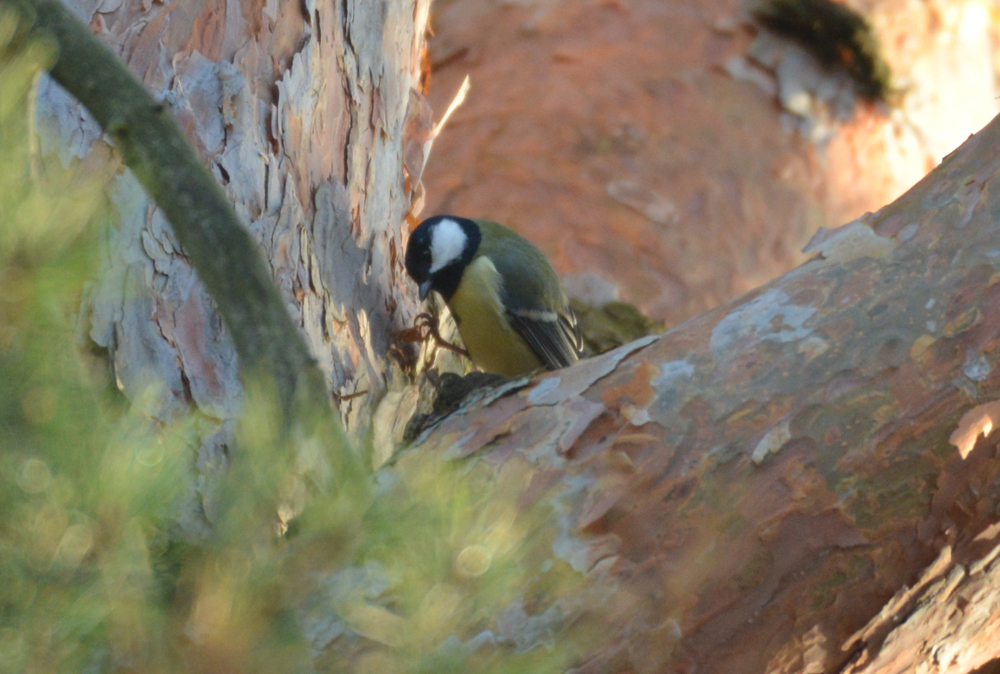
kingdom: Animalia
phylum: Chordata
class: Aves
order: Passeriformes
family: Paridae
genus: Parus
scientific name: Parus major
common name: Great tit
